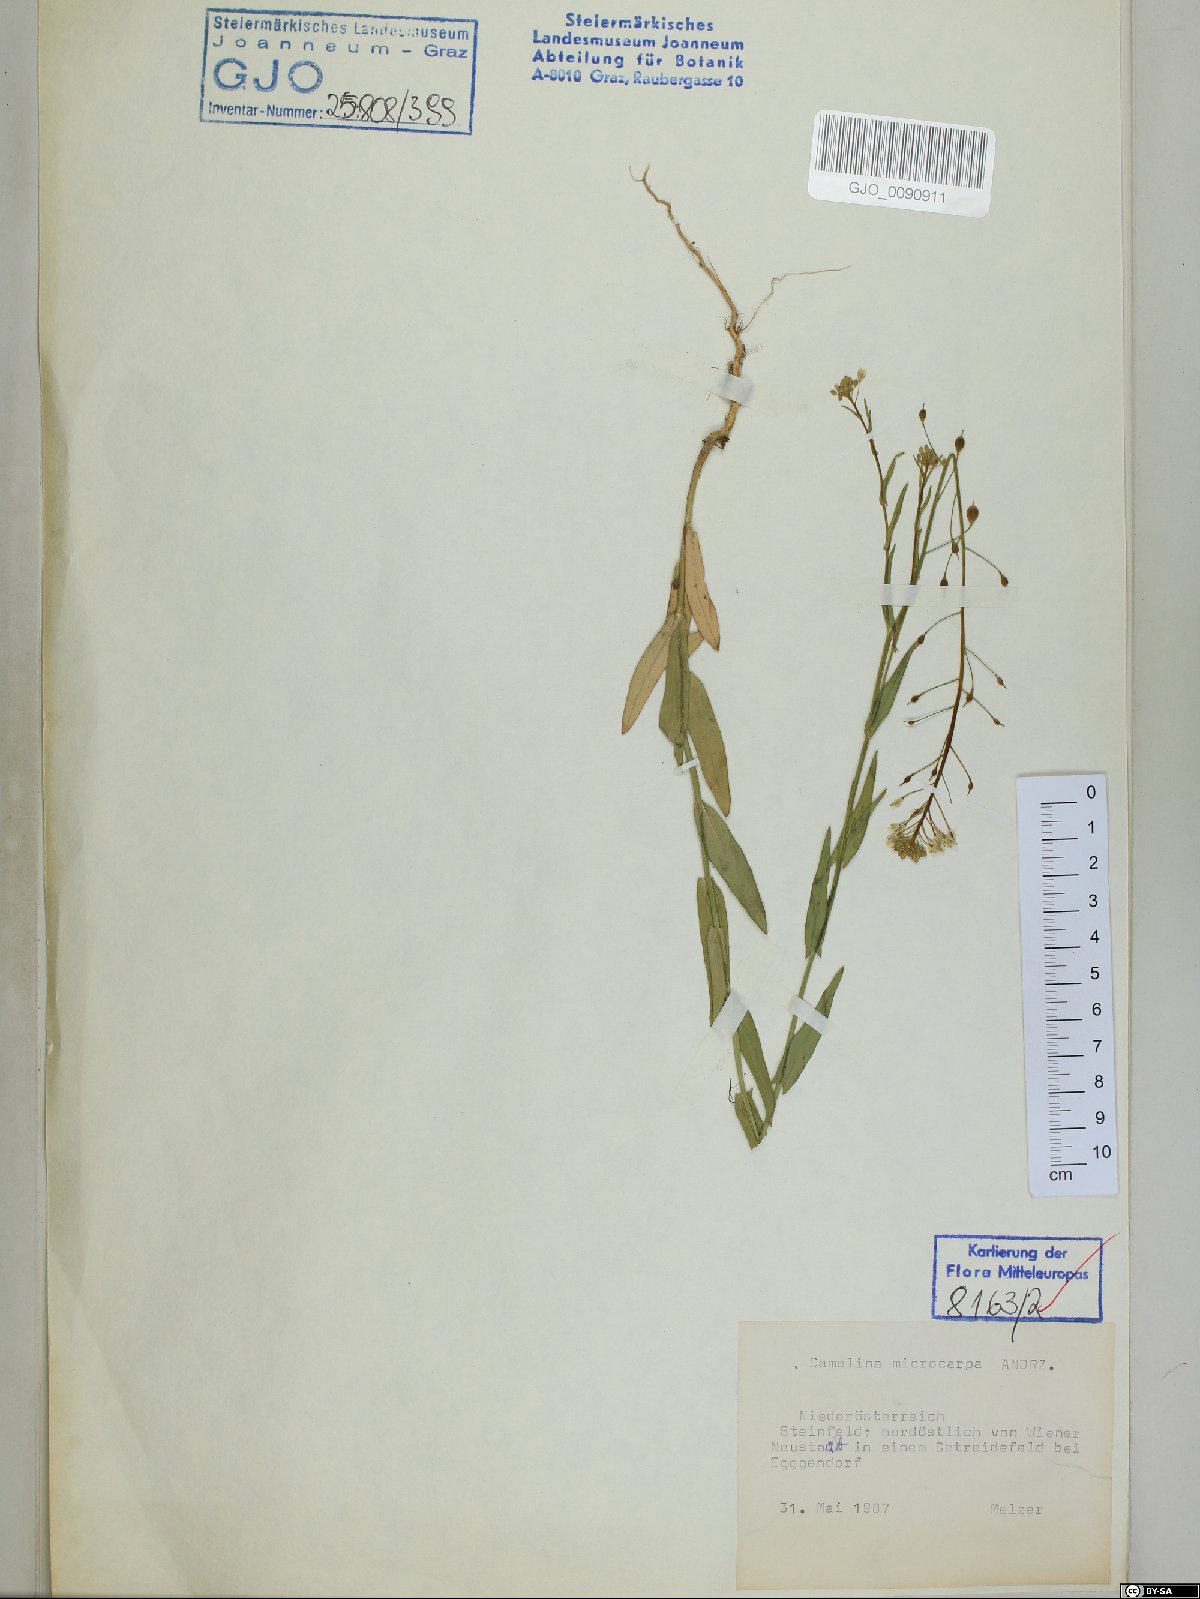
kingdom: Plantae
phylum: Tracheophyta
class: Magnoliopsida
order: Brassicales
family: Brassicaceae
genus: Camelina
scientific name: Camelina microcarpa
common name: Lesser gold-of-pleasure
